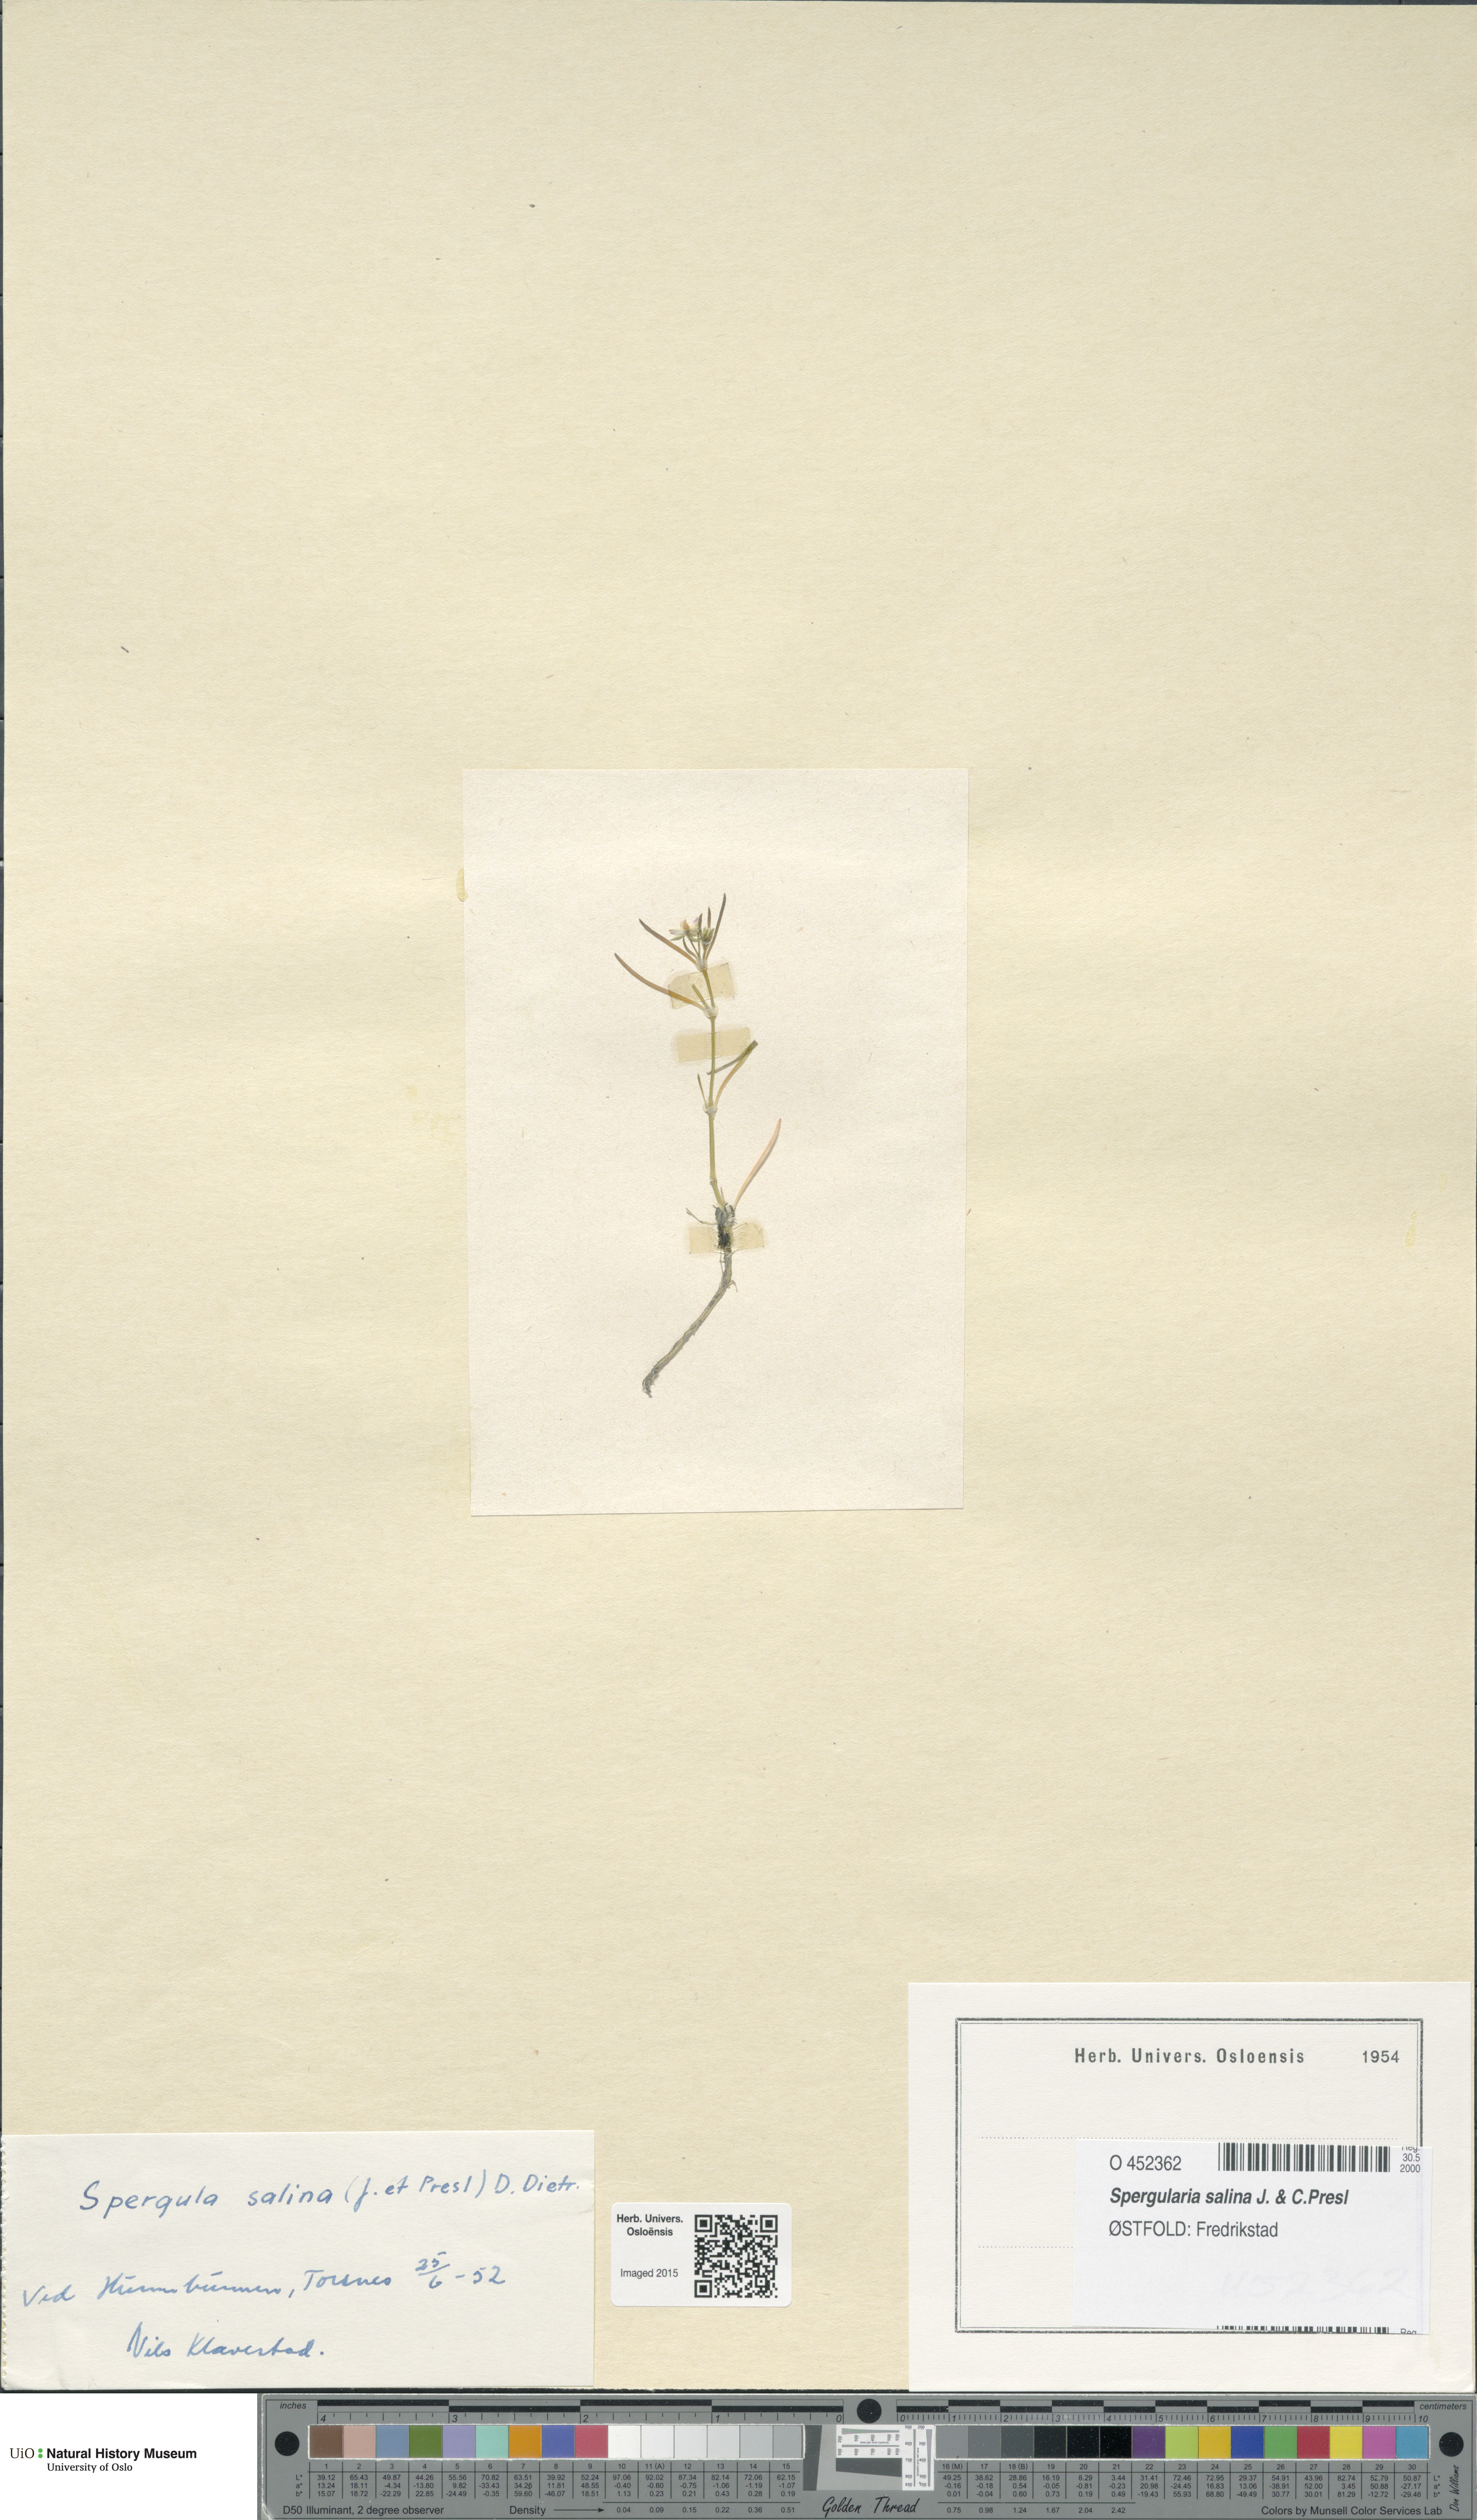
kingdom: Plantae
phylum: Tracheophyta
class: Magnoliopsida
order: Caryophyllales
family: Caryophyllaceae
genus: Spergularia
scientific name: Spergularia marina
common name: Lesser sea-spurrey
